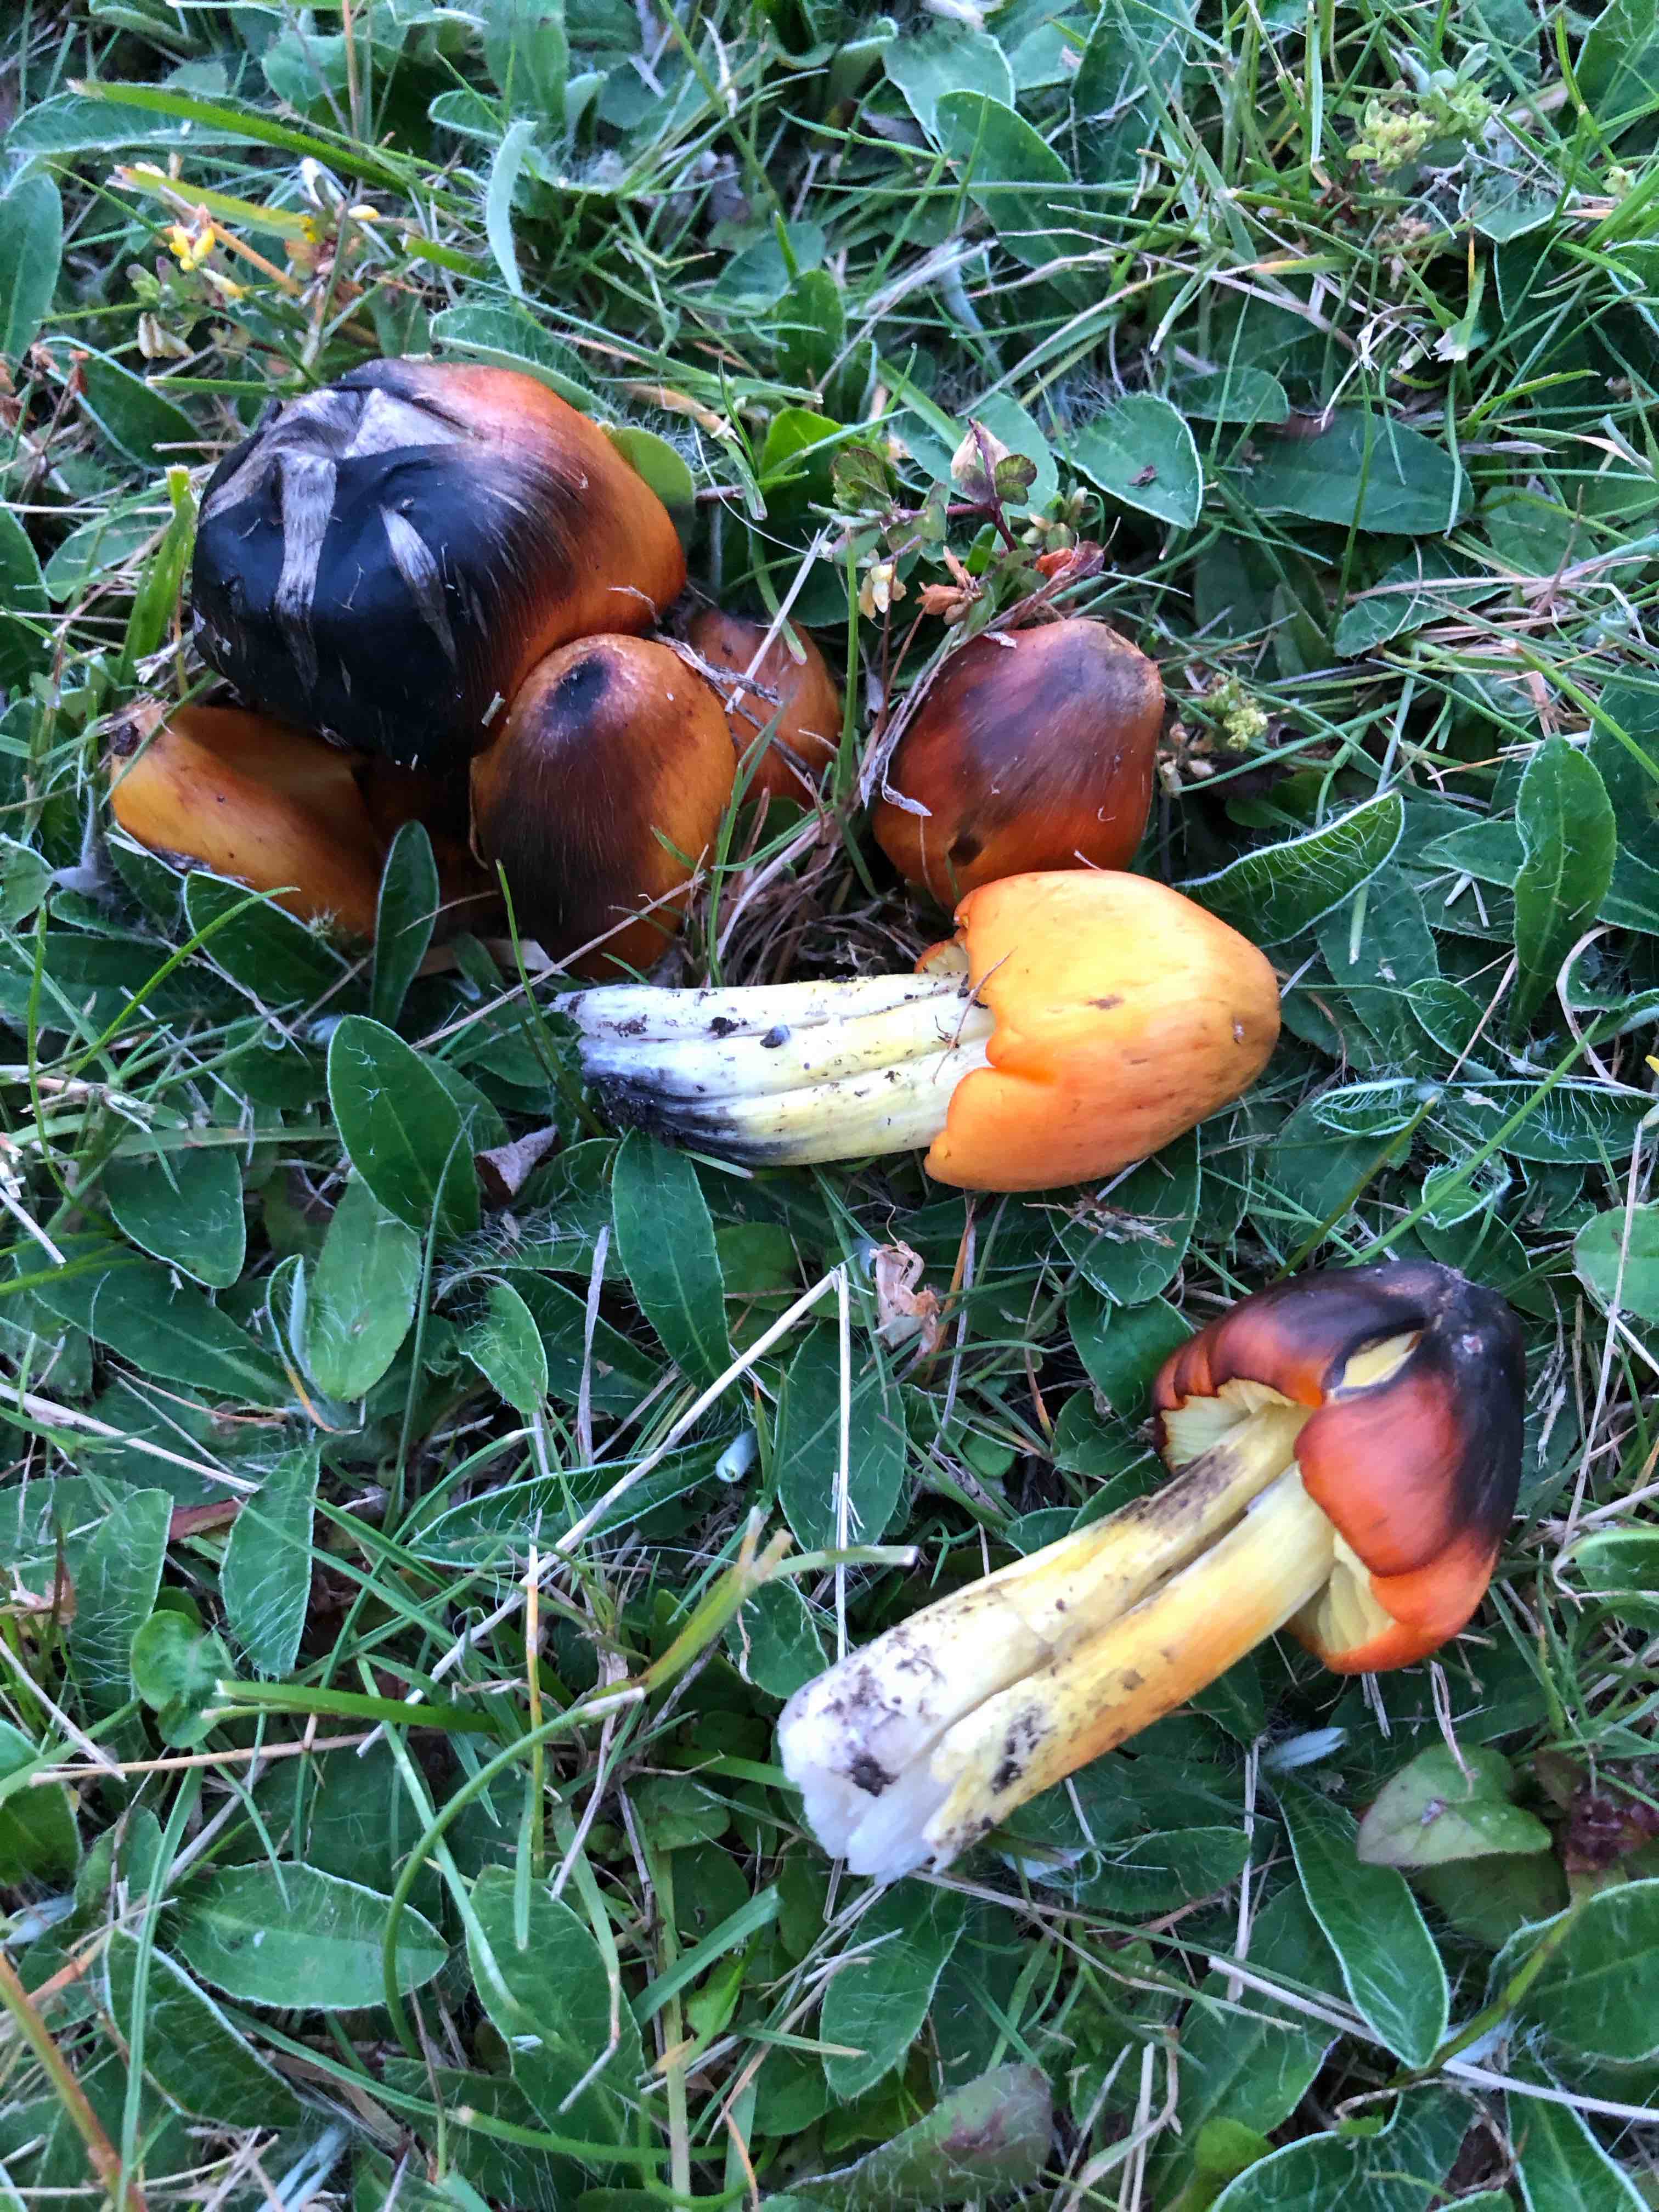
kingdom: Fungi
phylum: Basidiomycota
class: Agaricomycetes
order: Agaricales
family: Hygrophoraceae
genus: Hygrocybe
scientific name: Hygrocybe conica
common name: Blackening wax-cap
